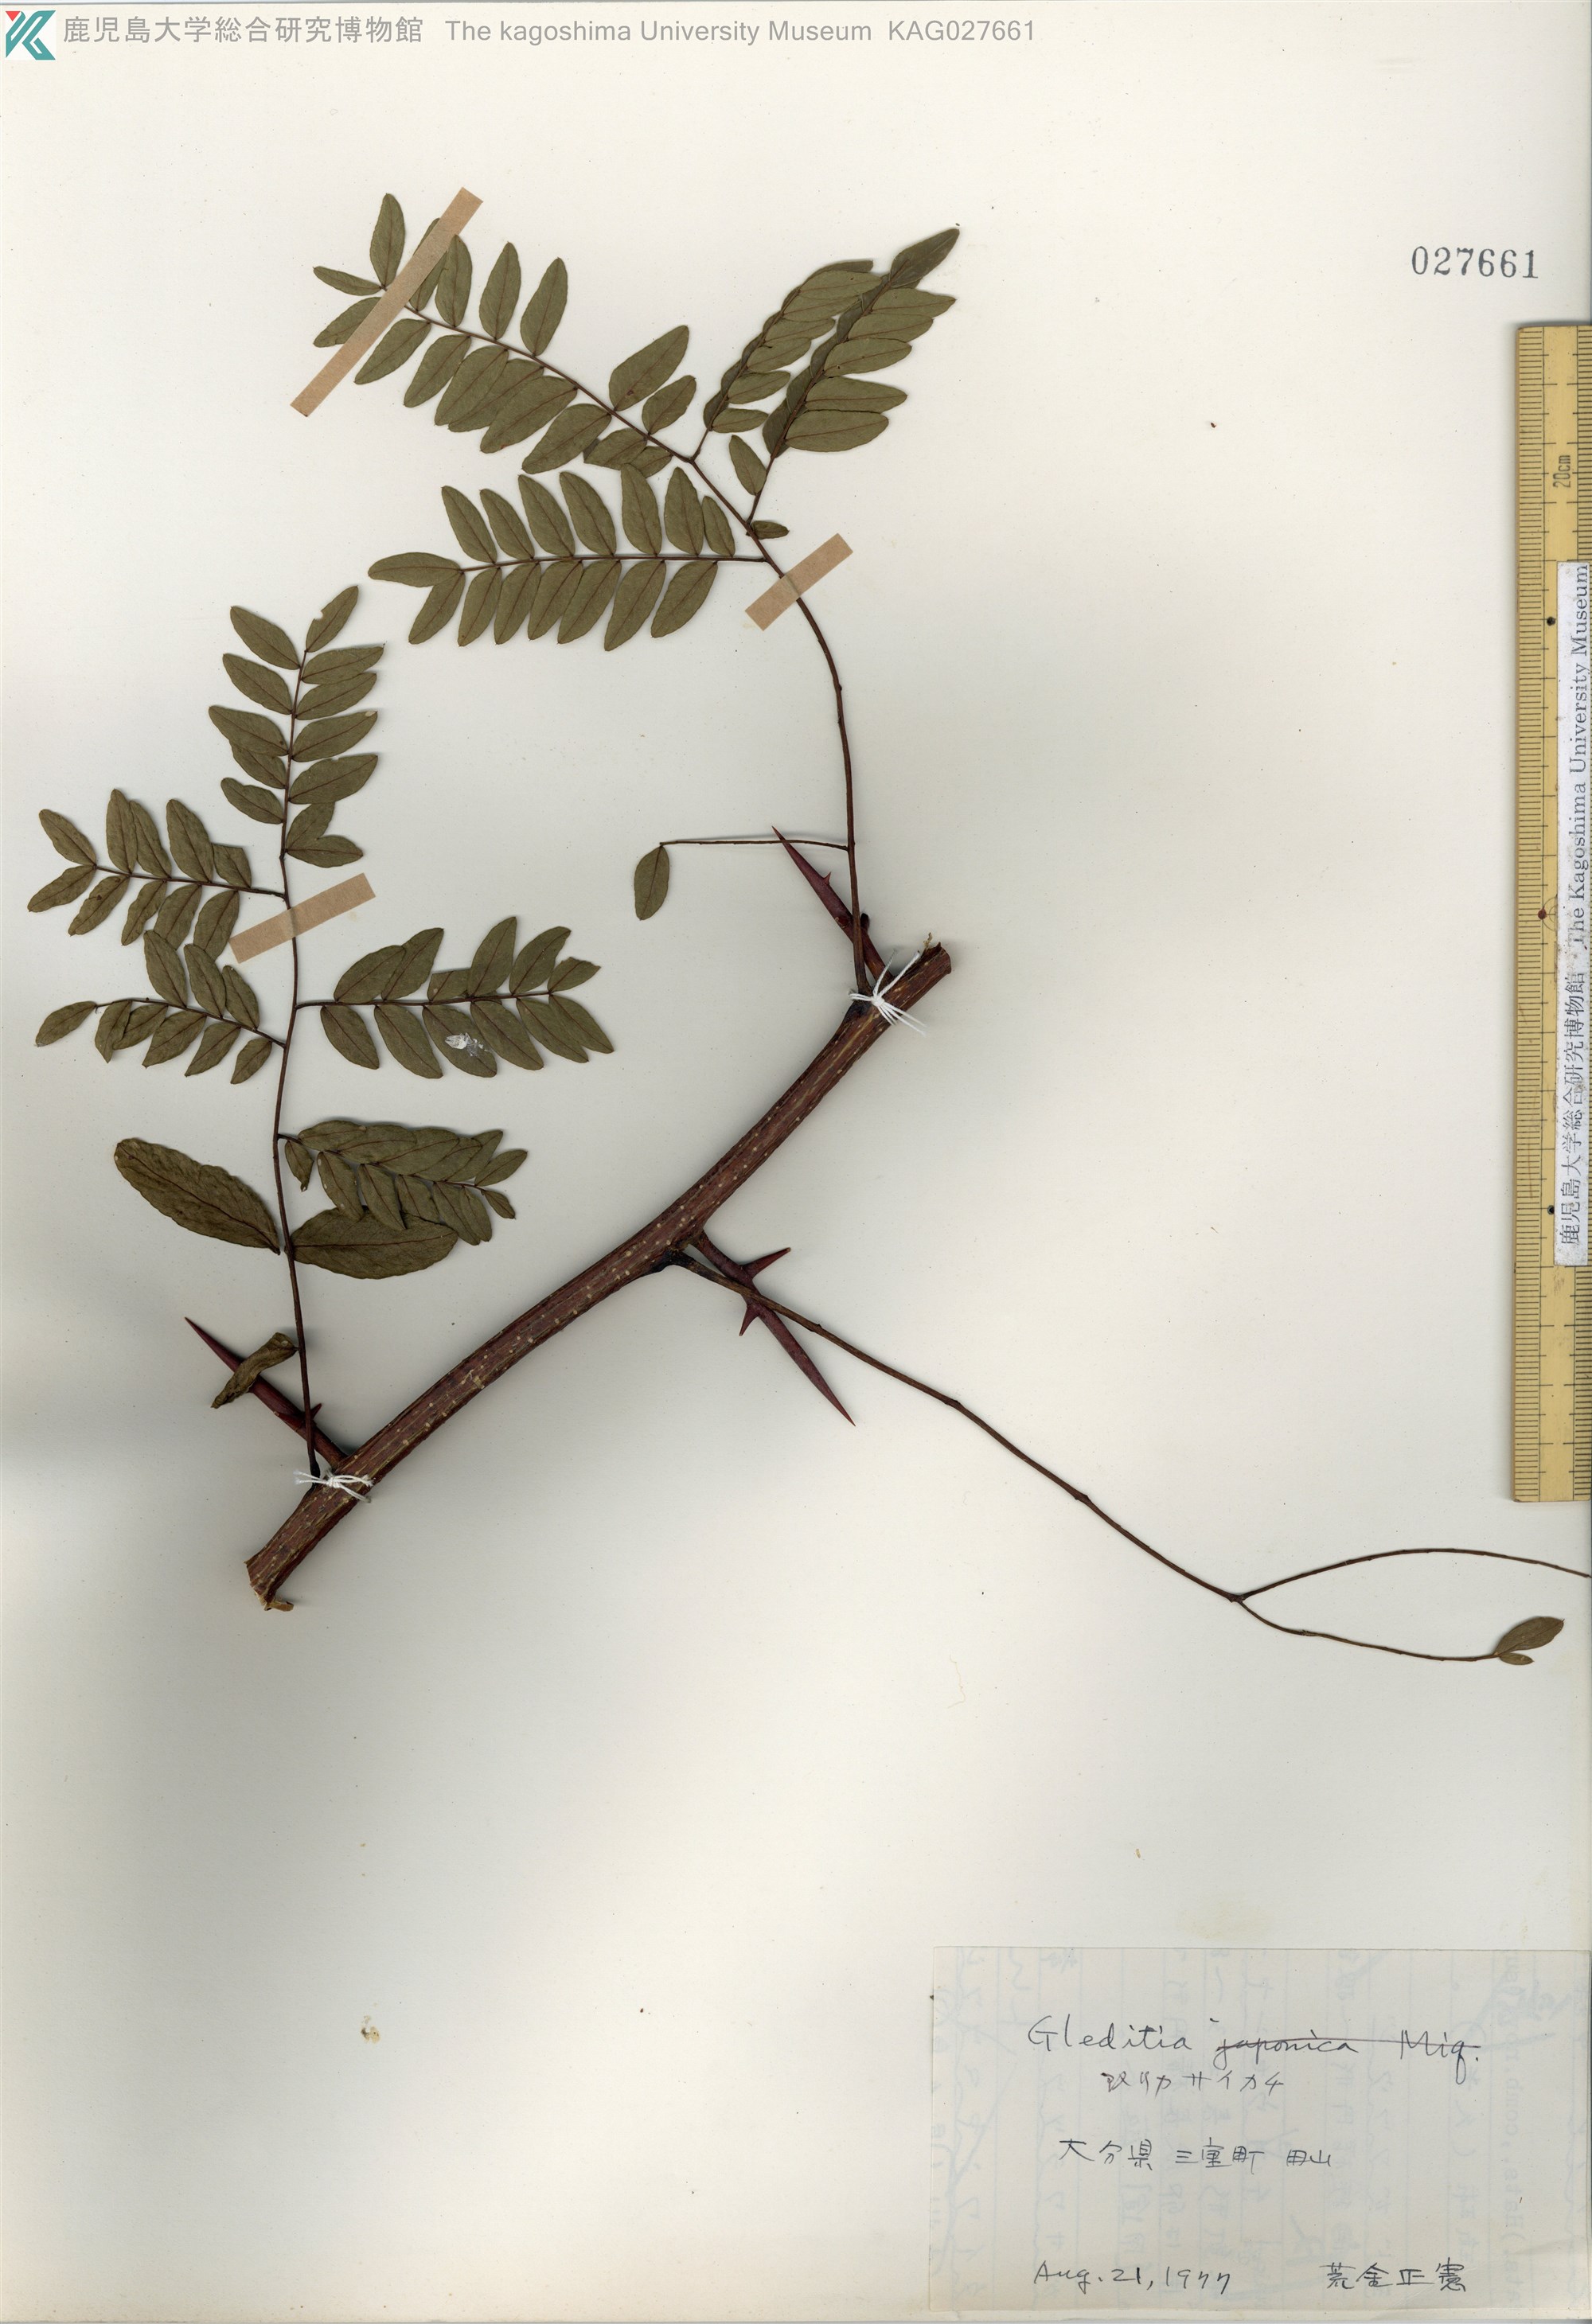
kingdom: Plantae
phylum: Tracheophyta
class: Magnoliopsida
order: Fabales
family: Fabaceae
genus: Gleditsia
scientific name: Gleditsia triacanthos
